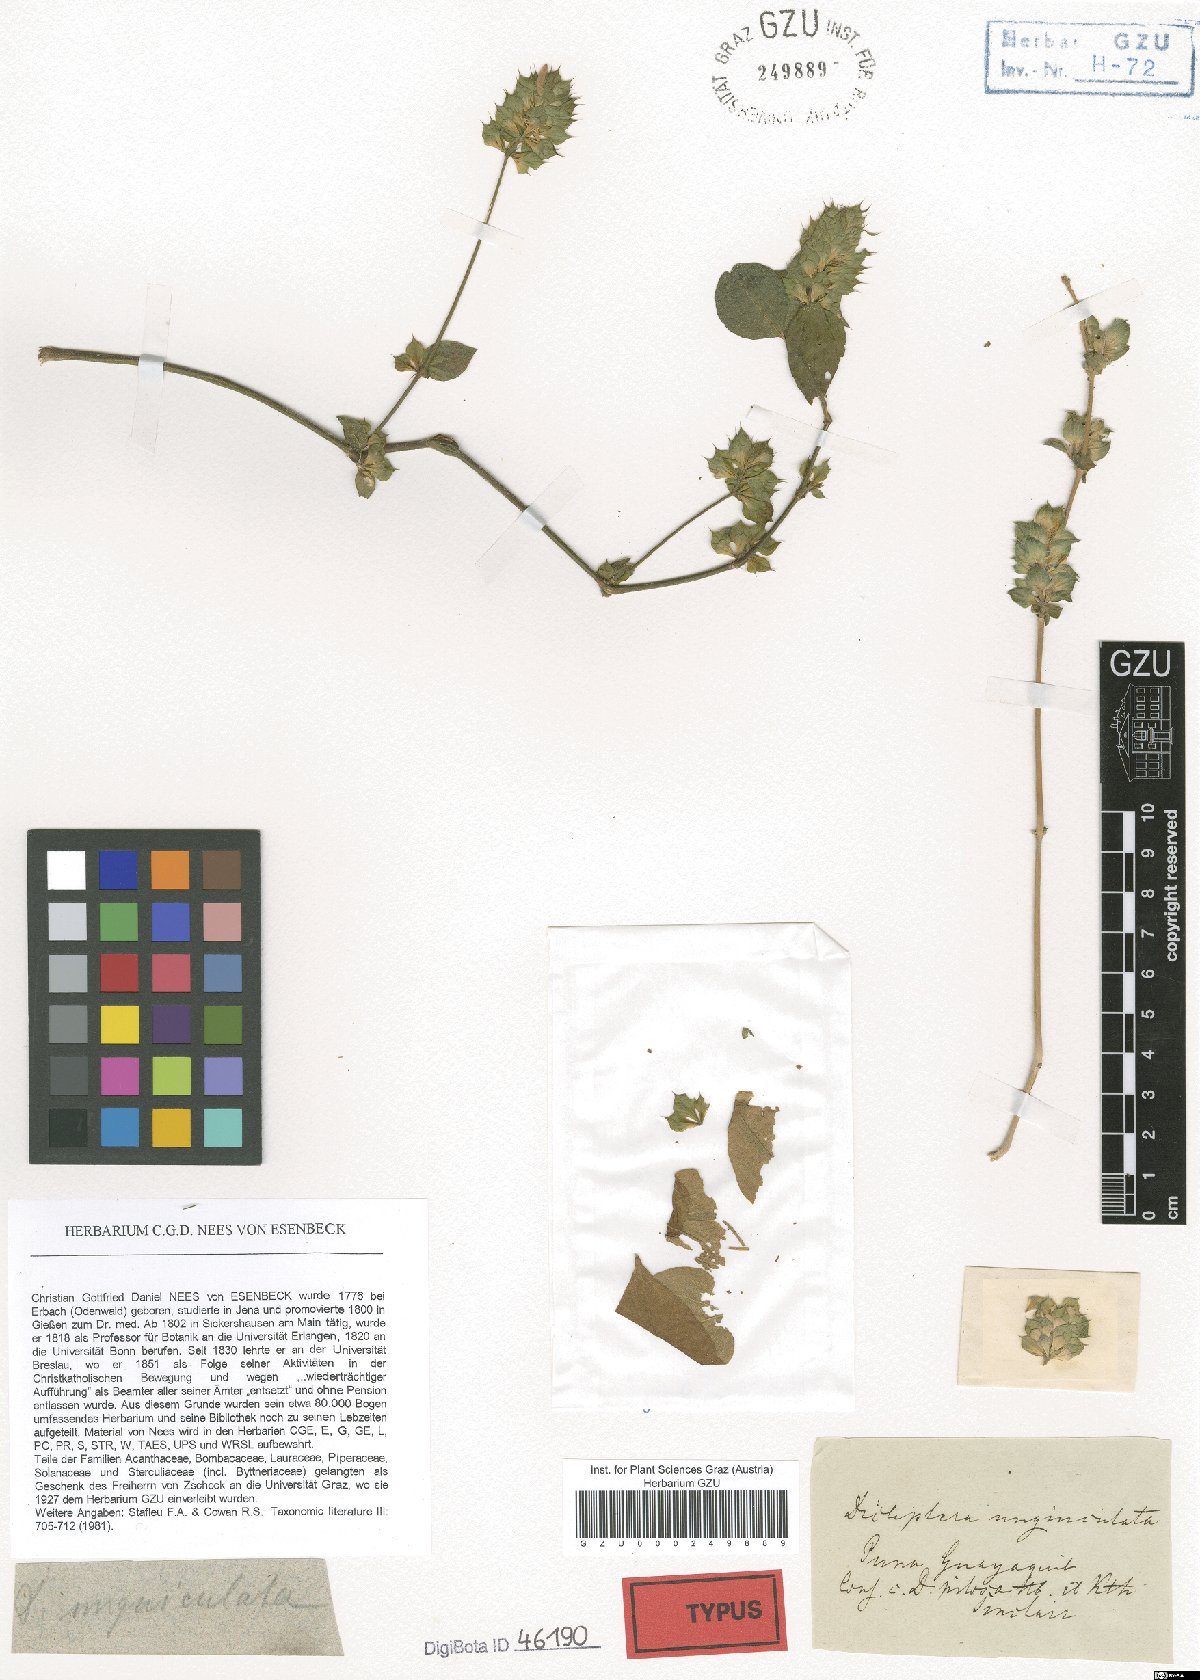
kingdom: Plantae
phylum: Tracheophyta
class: Magnoliopsida
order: Lamiales
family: Acanthaceae
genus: Dicliptera
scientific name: Dicliptera unguiculata
